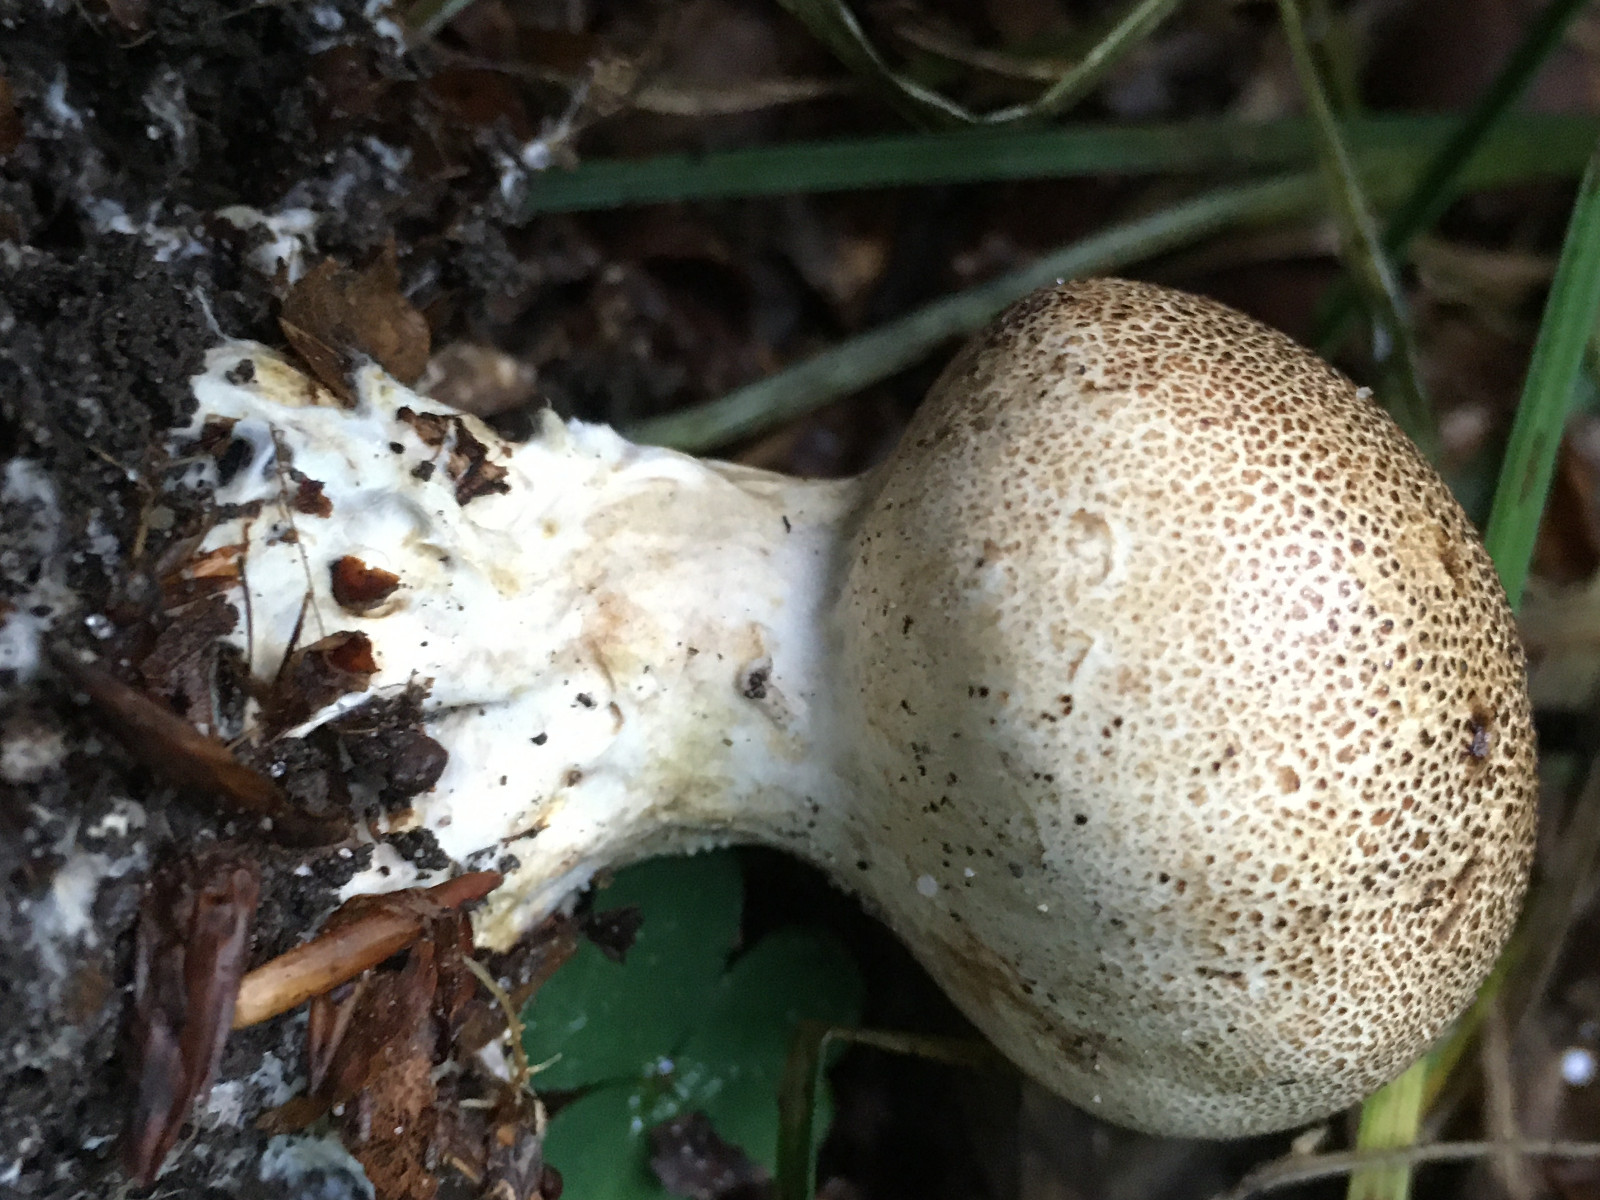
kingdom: Fungi
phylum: Basidiomycota
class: Agaricomycetes
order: Boletales
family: Sclerodermataceae
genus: Scleroderma
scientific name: Scleroderma verrucosum
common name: stilket bruskbold
